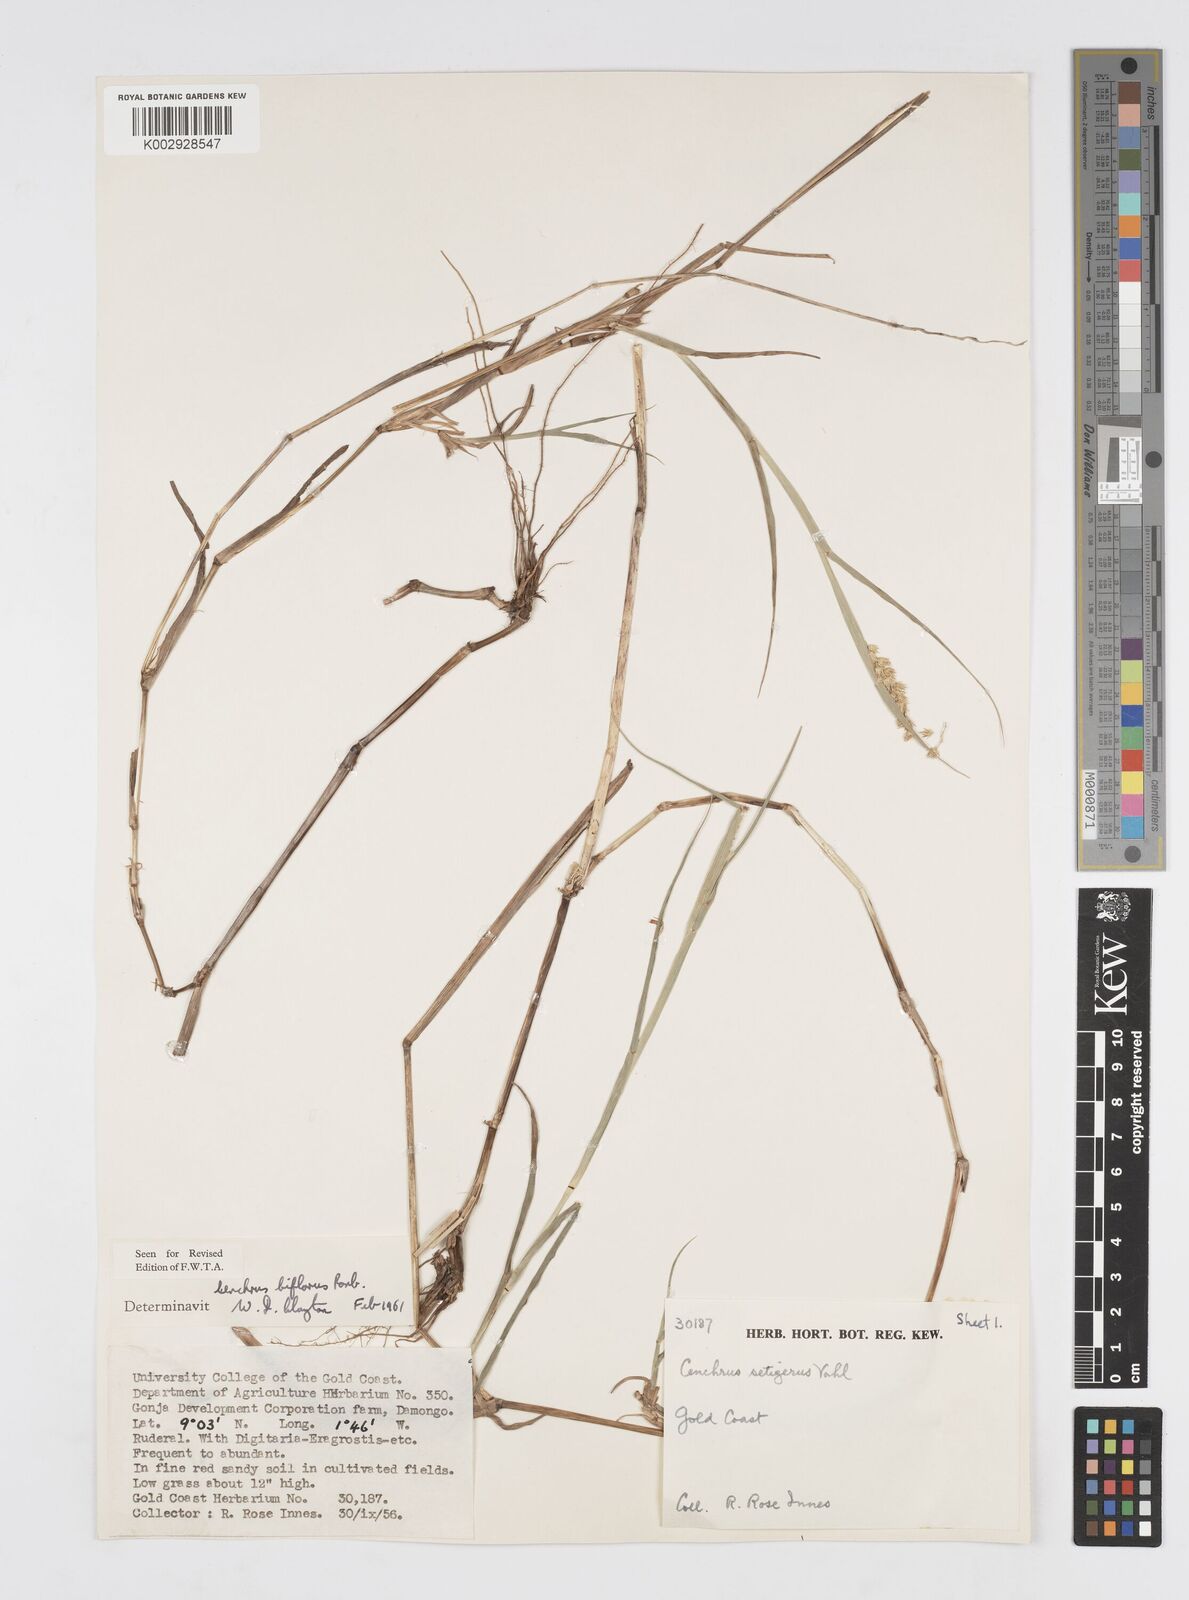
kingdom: Plantae
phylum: Tracheophyta
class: Liliopsida
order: Poales
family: Poaceae
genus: Cenchrus
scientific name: Cenchrus biflorus
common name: Indian sandbur
